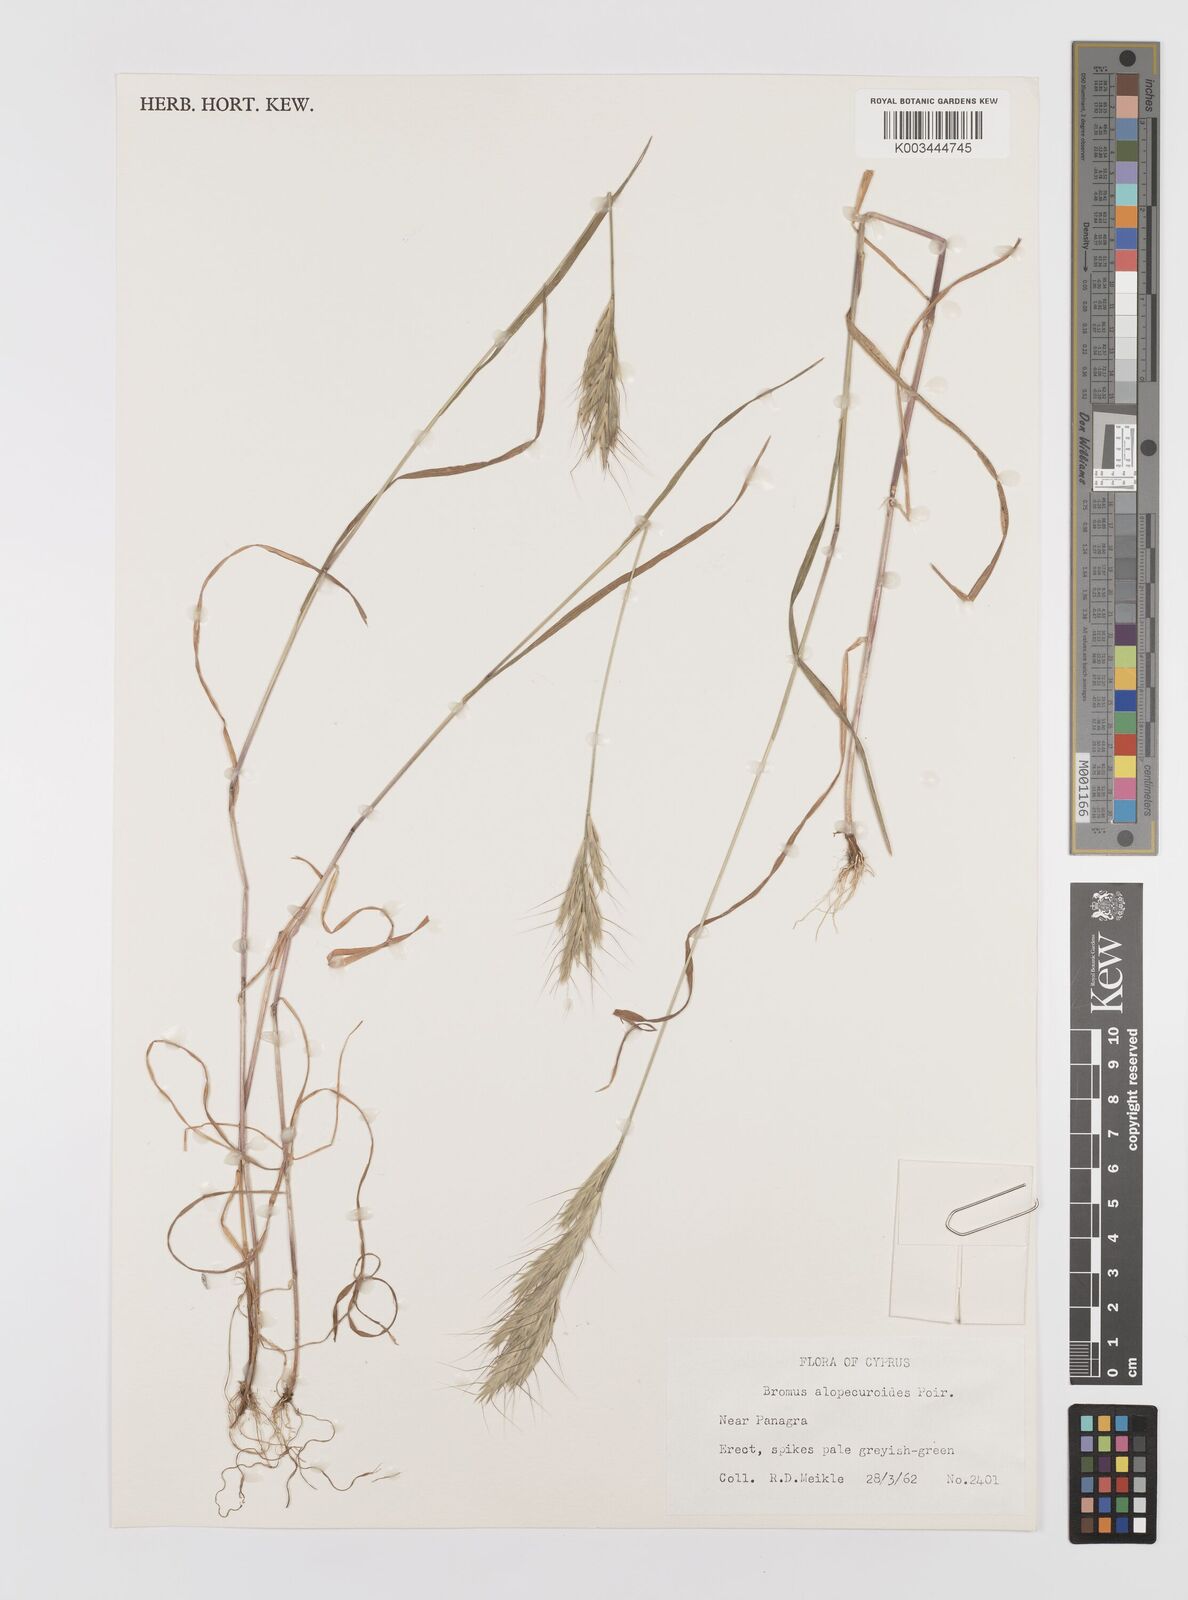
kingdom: Plantae
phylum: Tracheophyta
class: Liliopsida
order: Poales
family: Poaceae
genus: Bromus
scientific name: Bromus alopecuros
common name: Weedy brome
